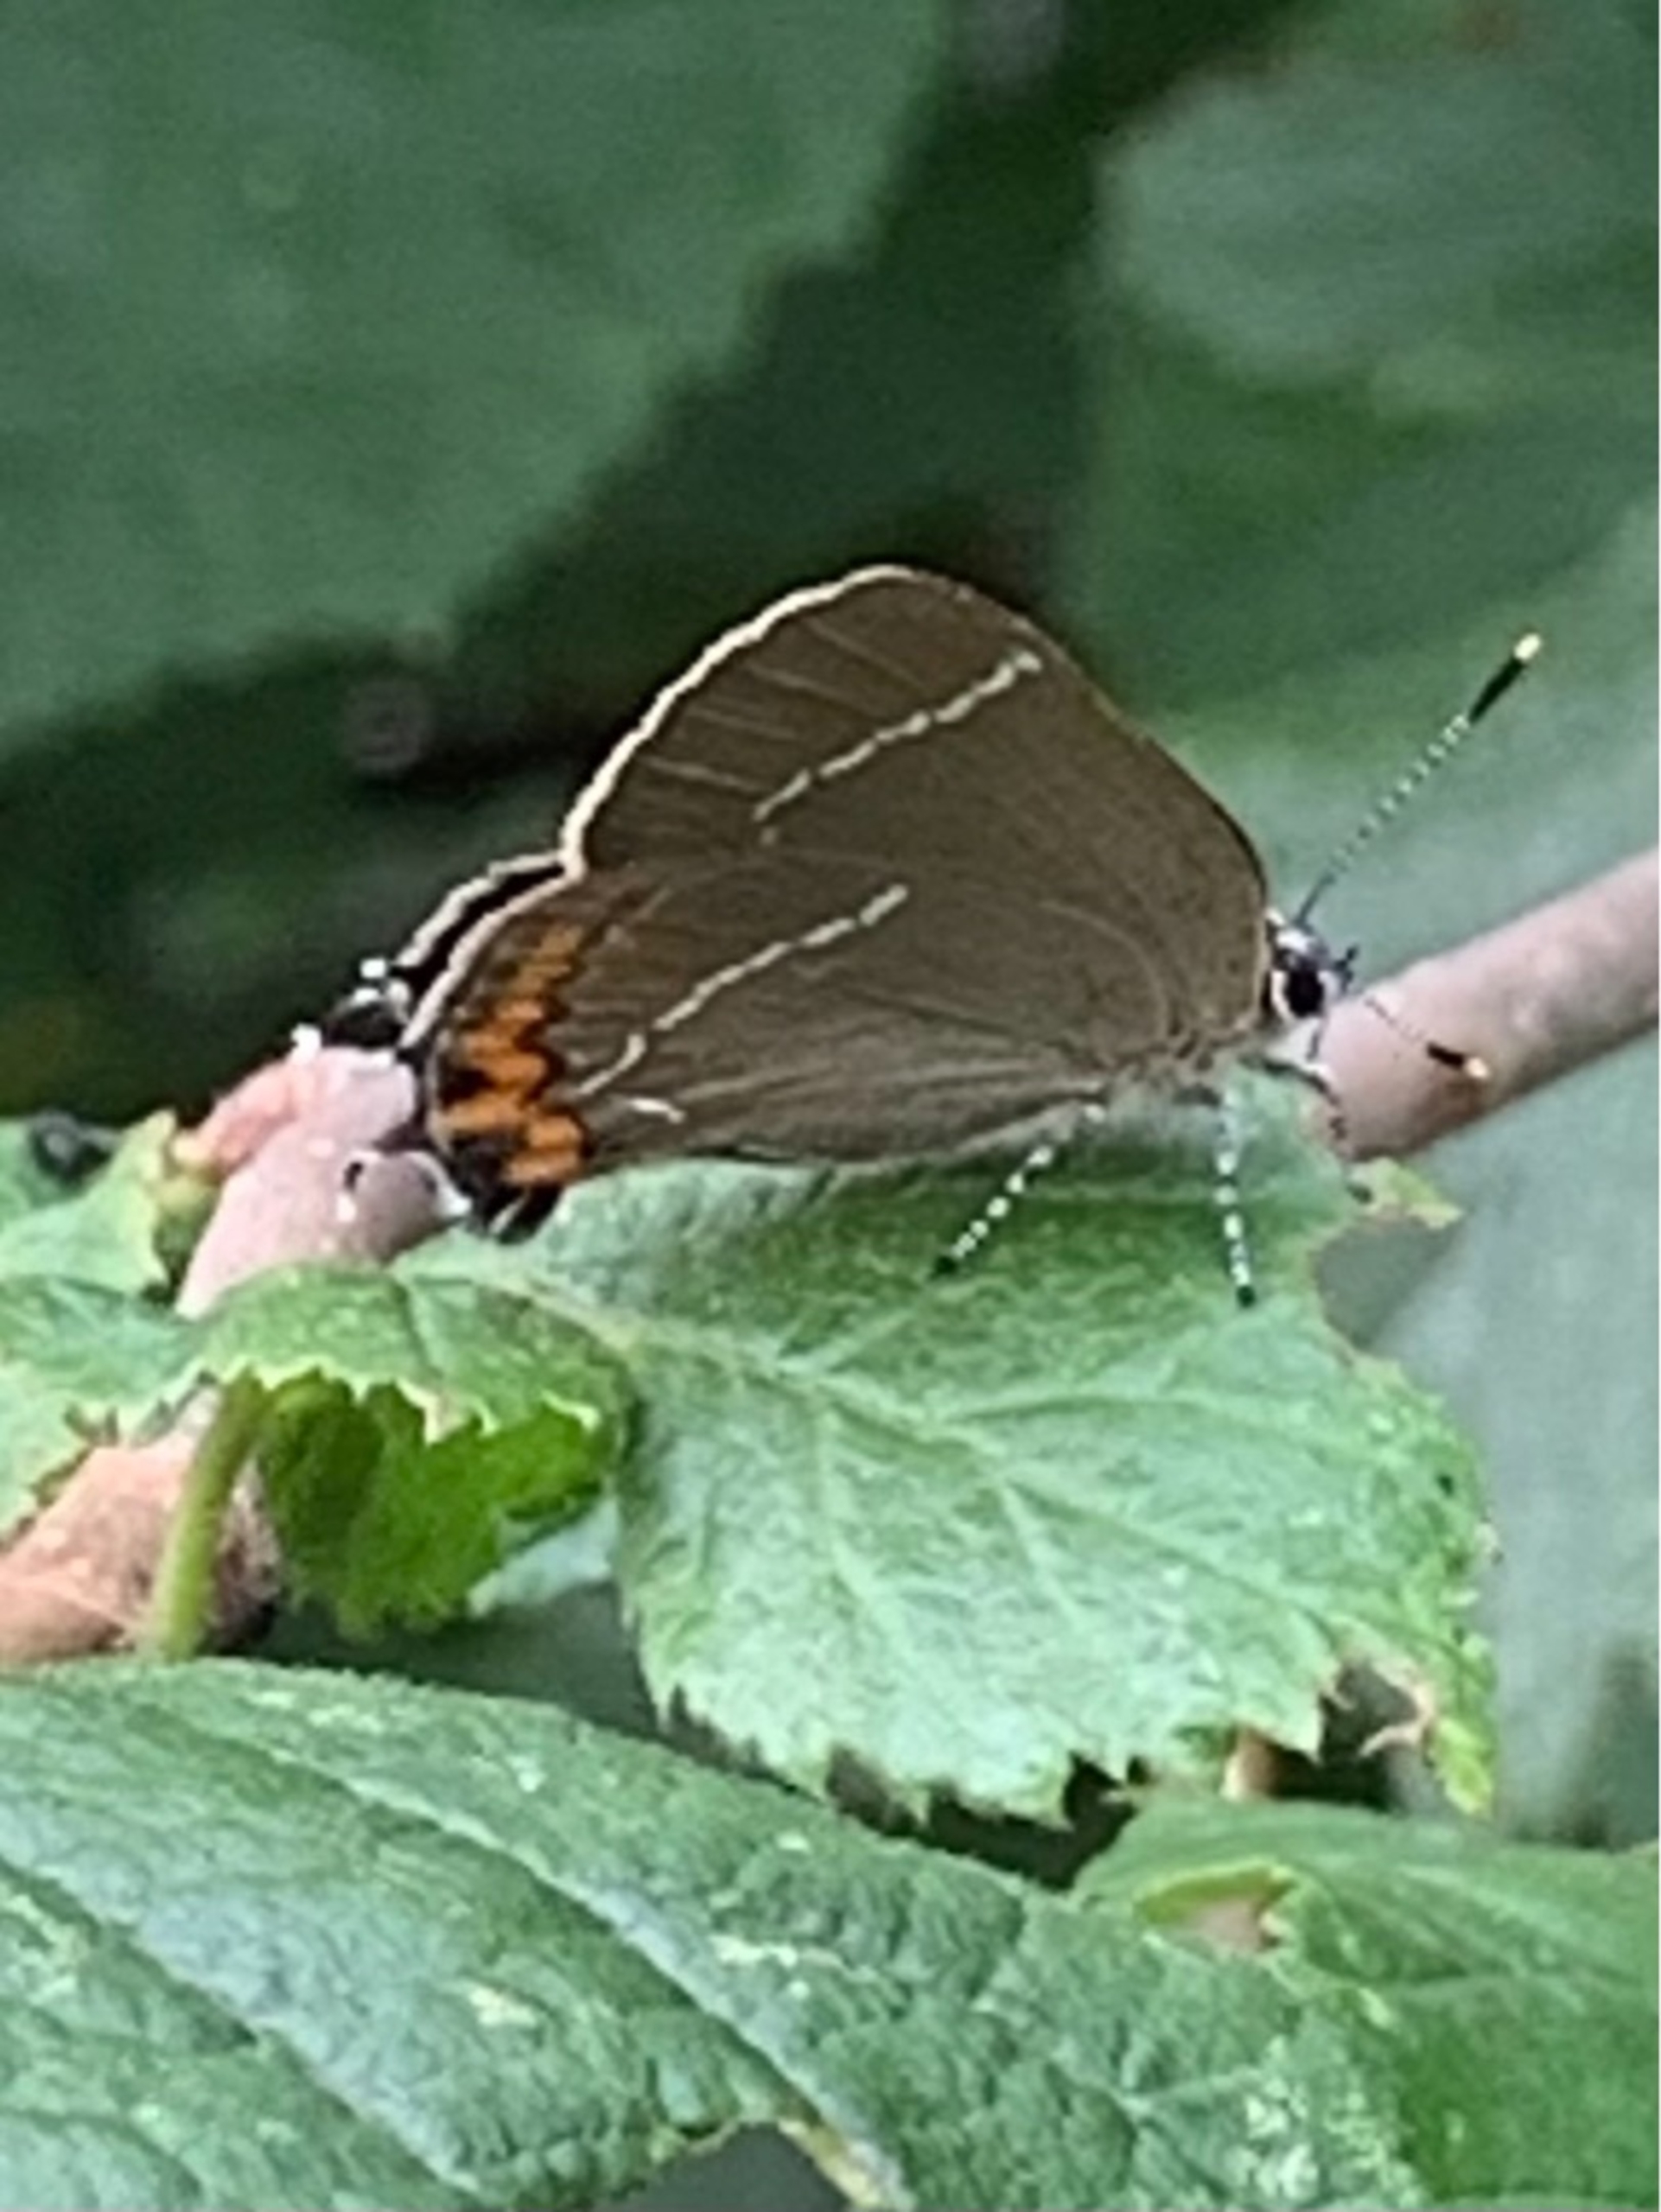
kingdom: Animalia
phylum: Arthropoda
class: Insecta
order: Lepidoptera
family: Lycaenidae
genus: Satyrium
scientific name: Satyrium w-album
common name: Det hvide W
